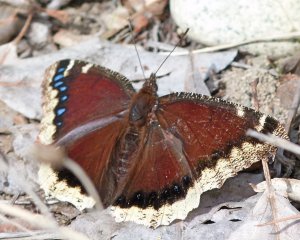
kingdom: Animalia
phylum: Arthropoda
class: Insecta
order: Lepidoptera
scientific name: Lepidoptera
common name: Butterflies
